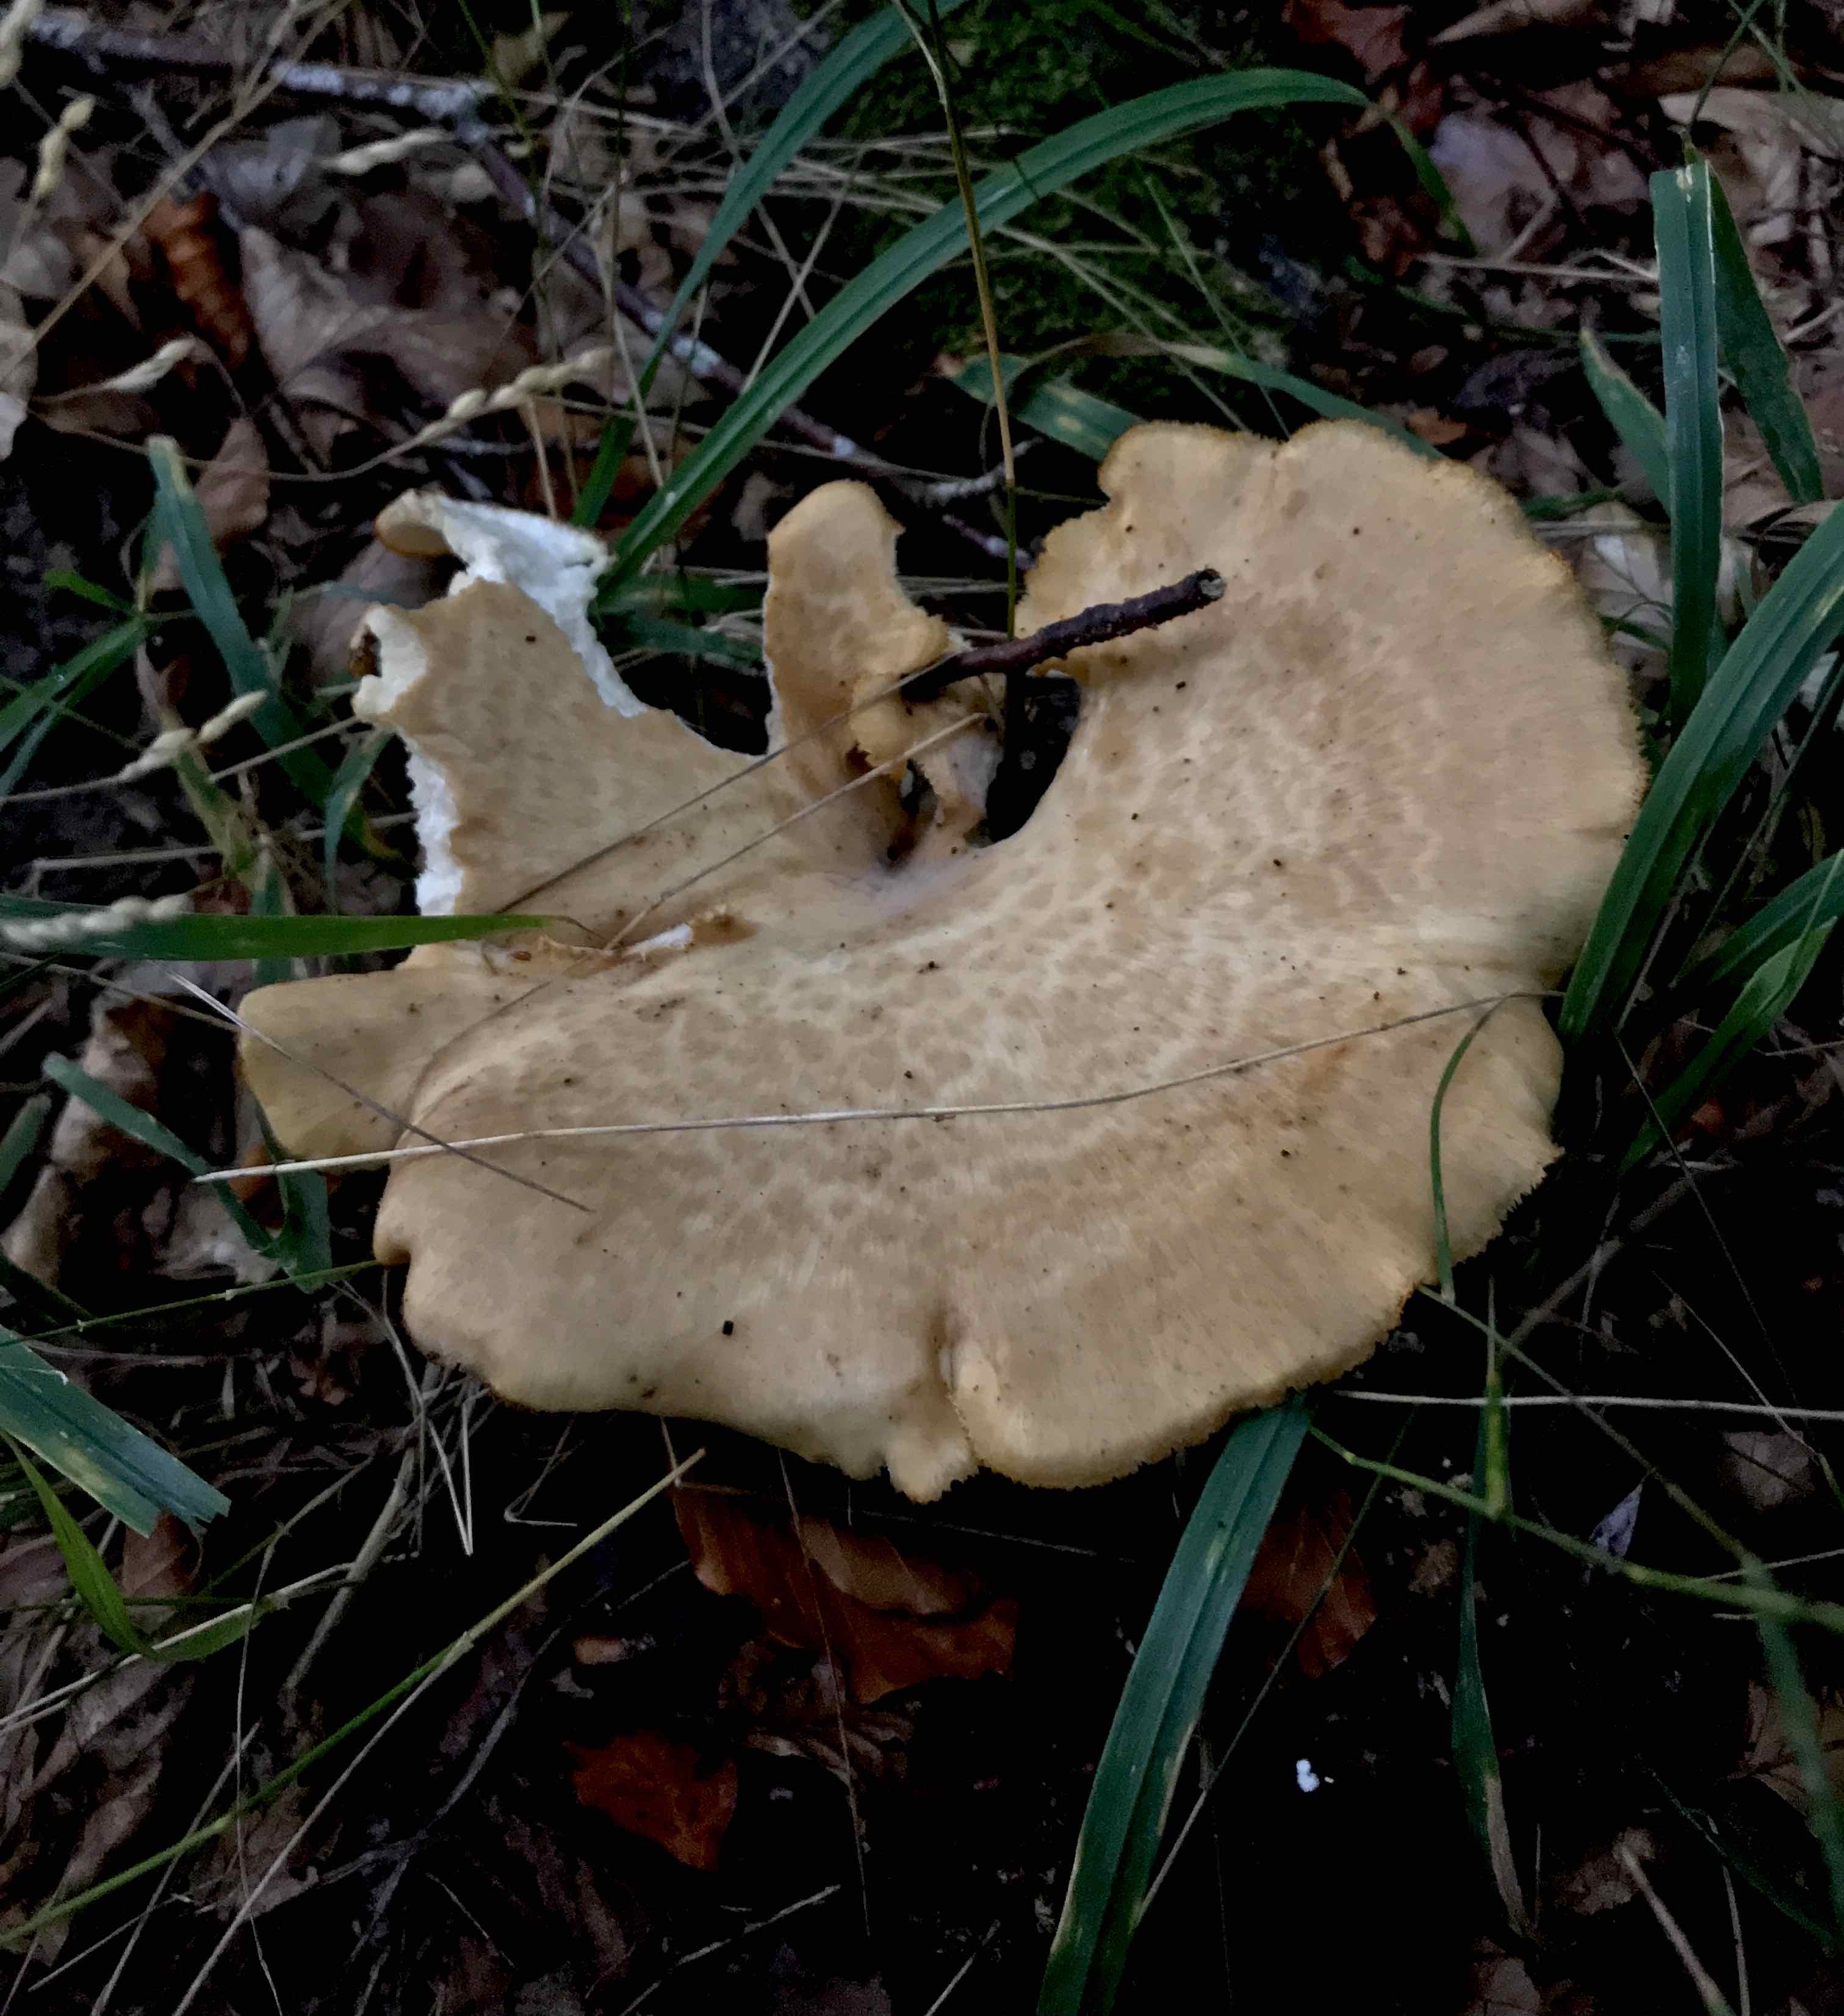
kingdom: Fungi
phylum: Basidiomycota
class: Agaricomycetes
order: Polyporales
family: Polyporaceae
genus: Polyporus
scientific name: Polyporus tuberaster
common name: knoldet stilkporesvamp
